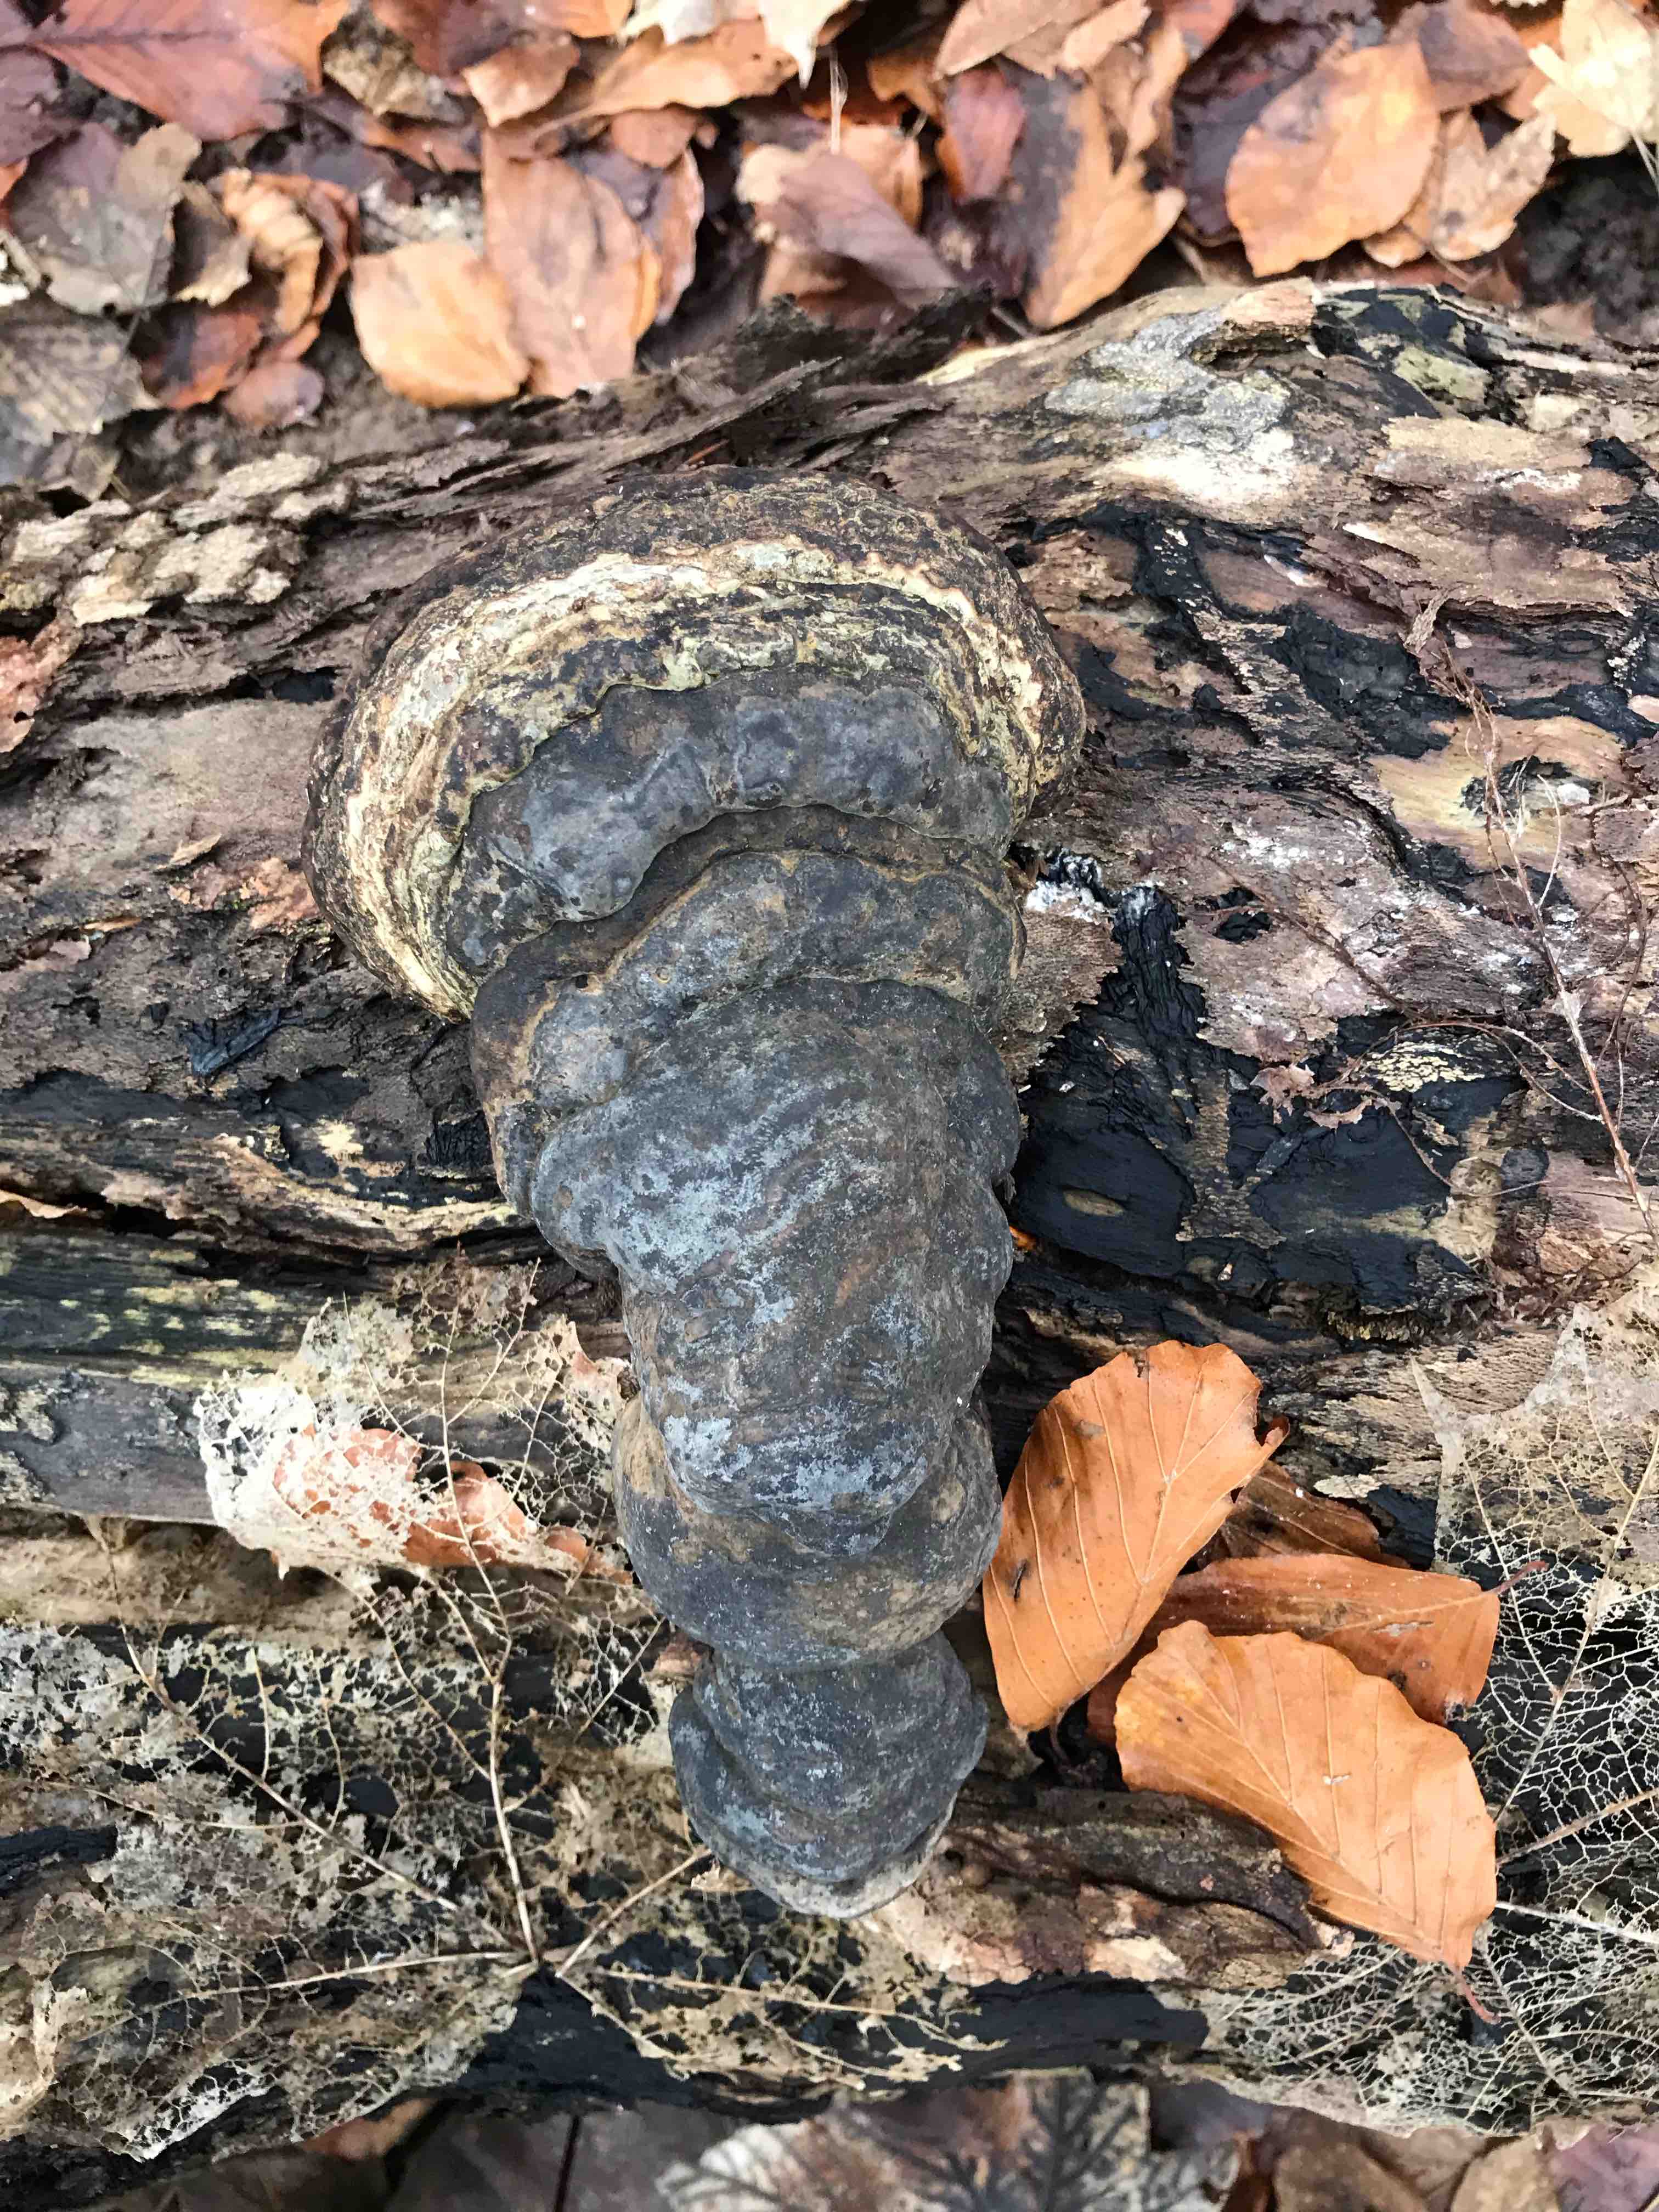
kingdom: Fungi
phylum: Basidiomycota
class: Agaricomycetes
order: Polyporales
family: Polyporaceae
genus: Fomes
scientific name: Fomes fomentarius
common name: tøndersvamp
